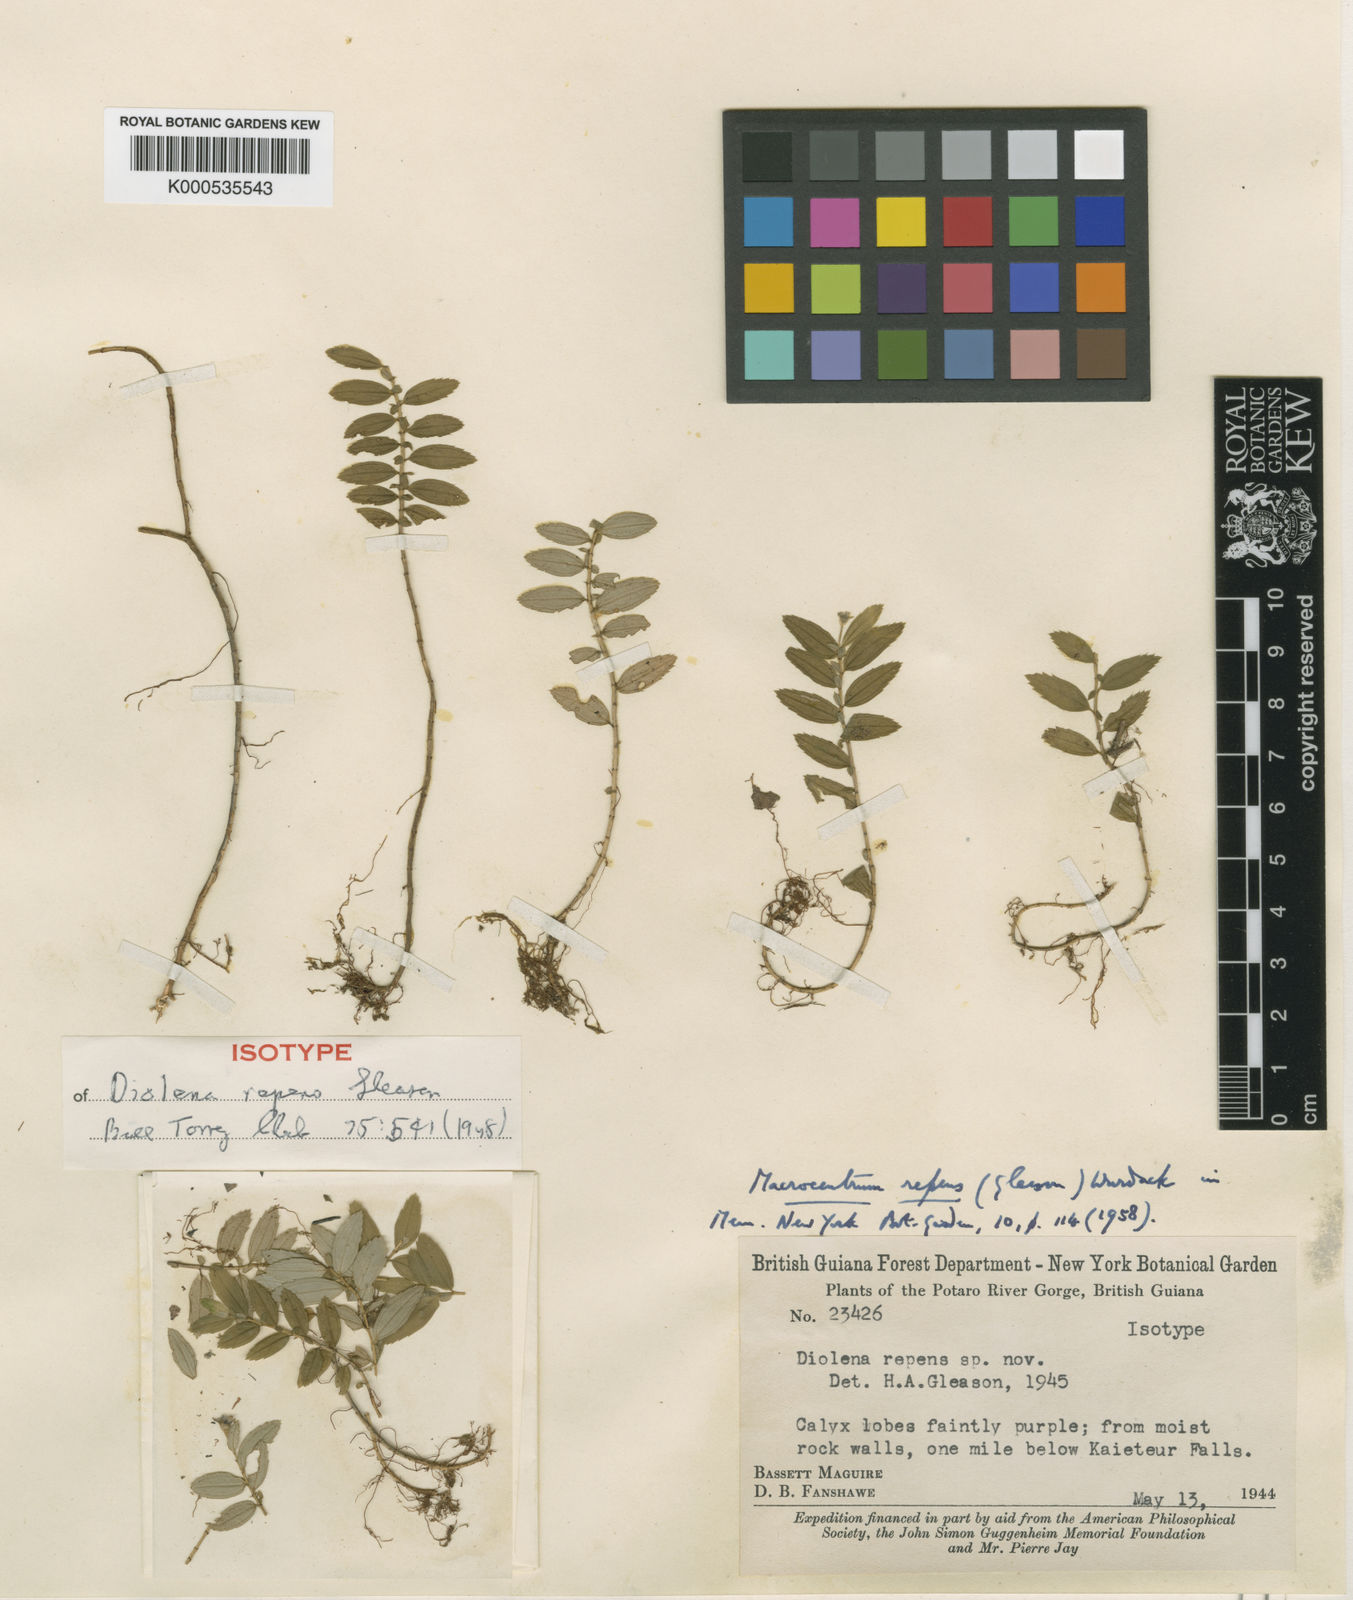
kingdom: Plantae
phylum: Tracheophyta
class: Magnoliopsida
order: Myrtales
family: Melastomataceae
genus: Macrocentrum
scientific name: Macrocentrum repens
